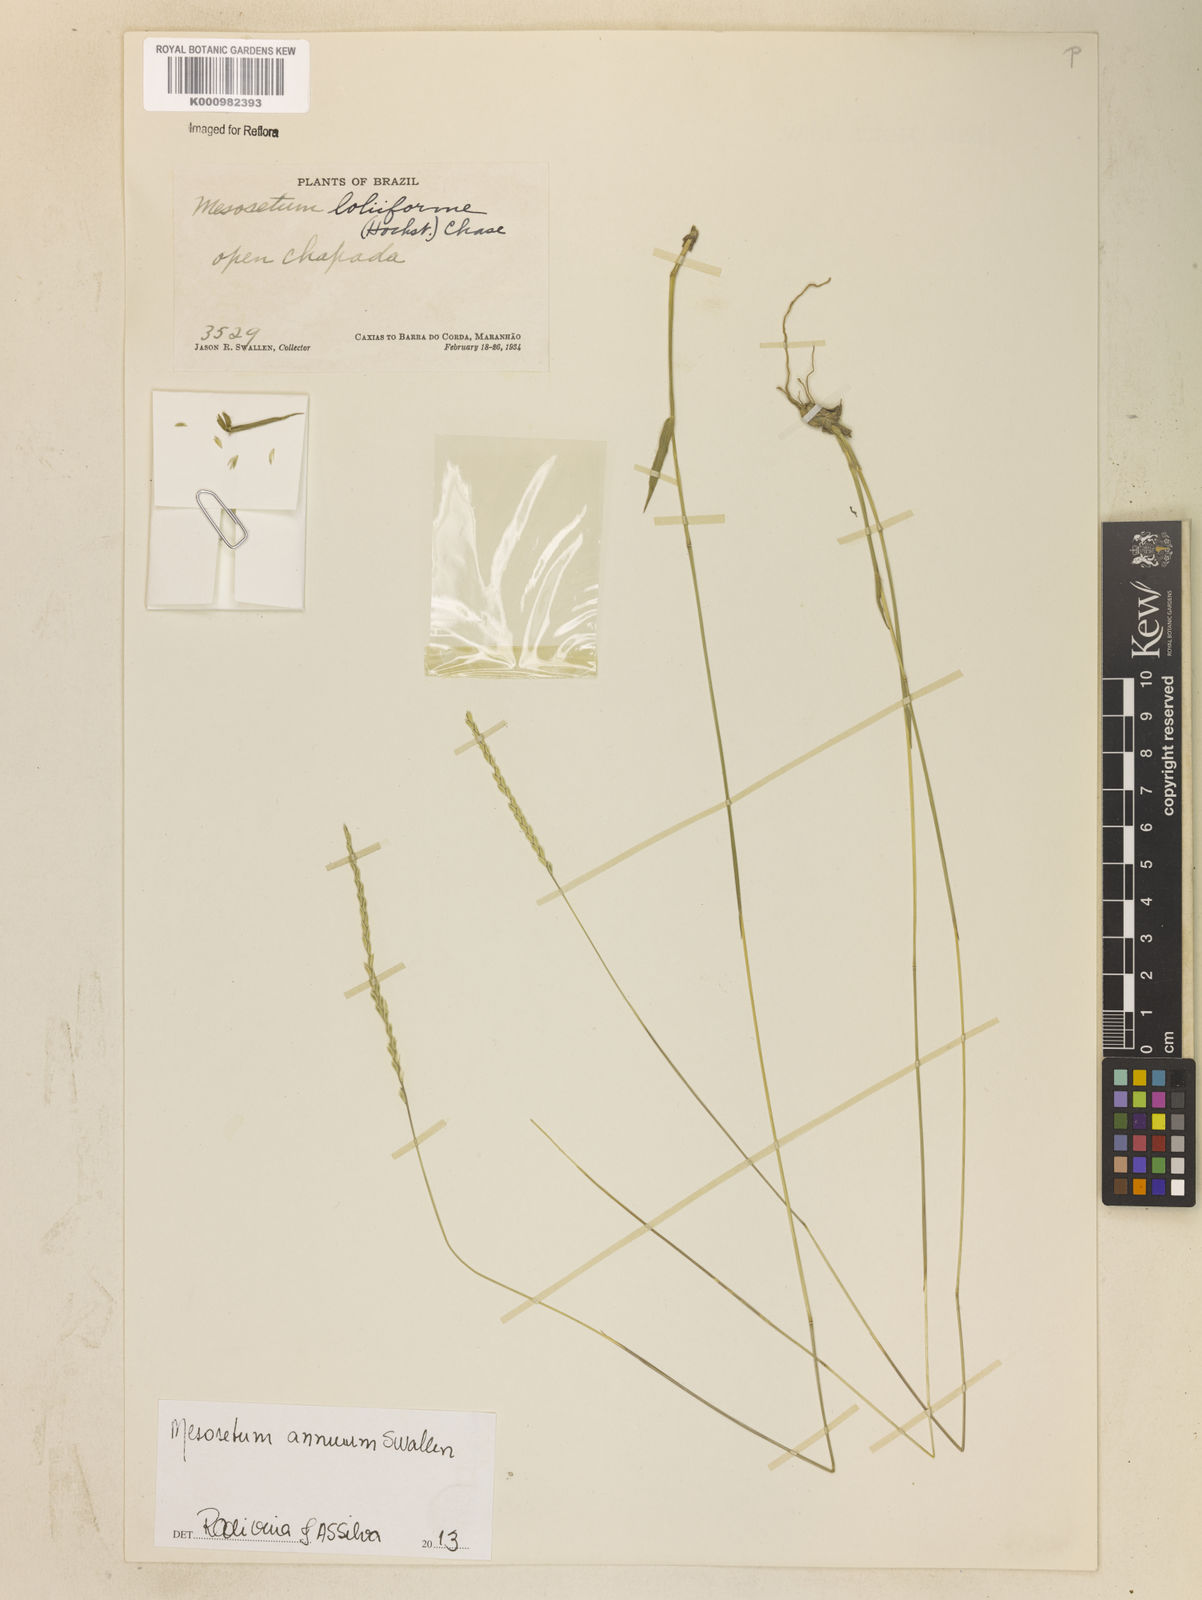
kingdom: Plantae
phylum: Tracheophyta
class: Liliopsida
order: Poales
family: Poaceae
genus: Mesosetum
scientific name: Mesosetum annuum
